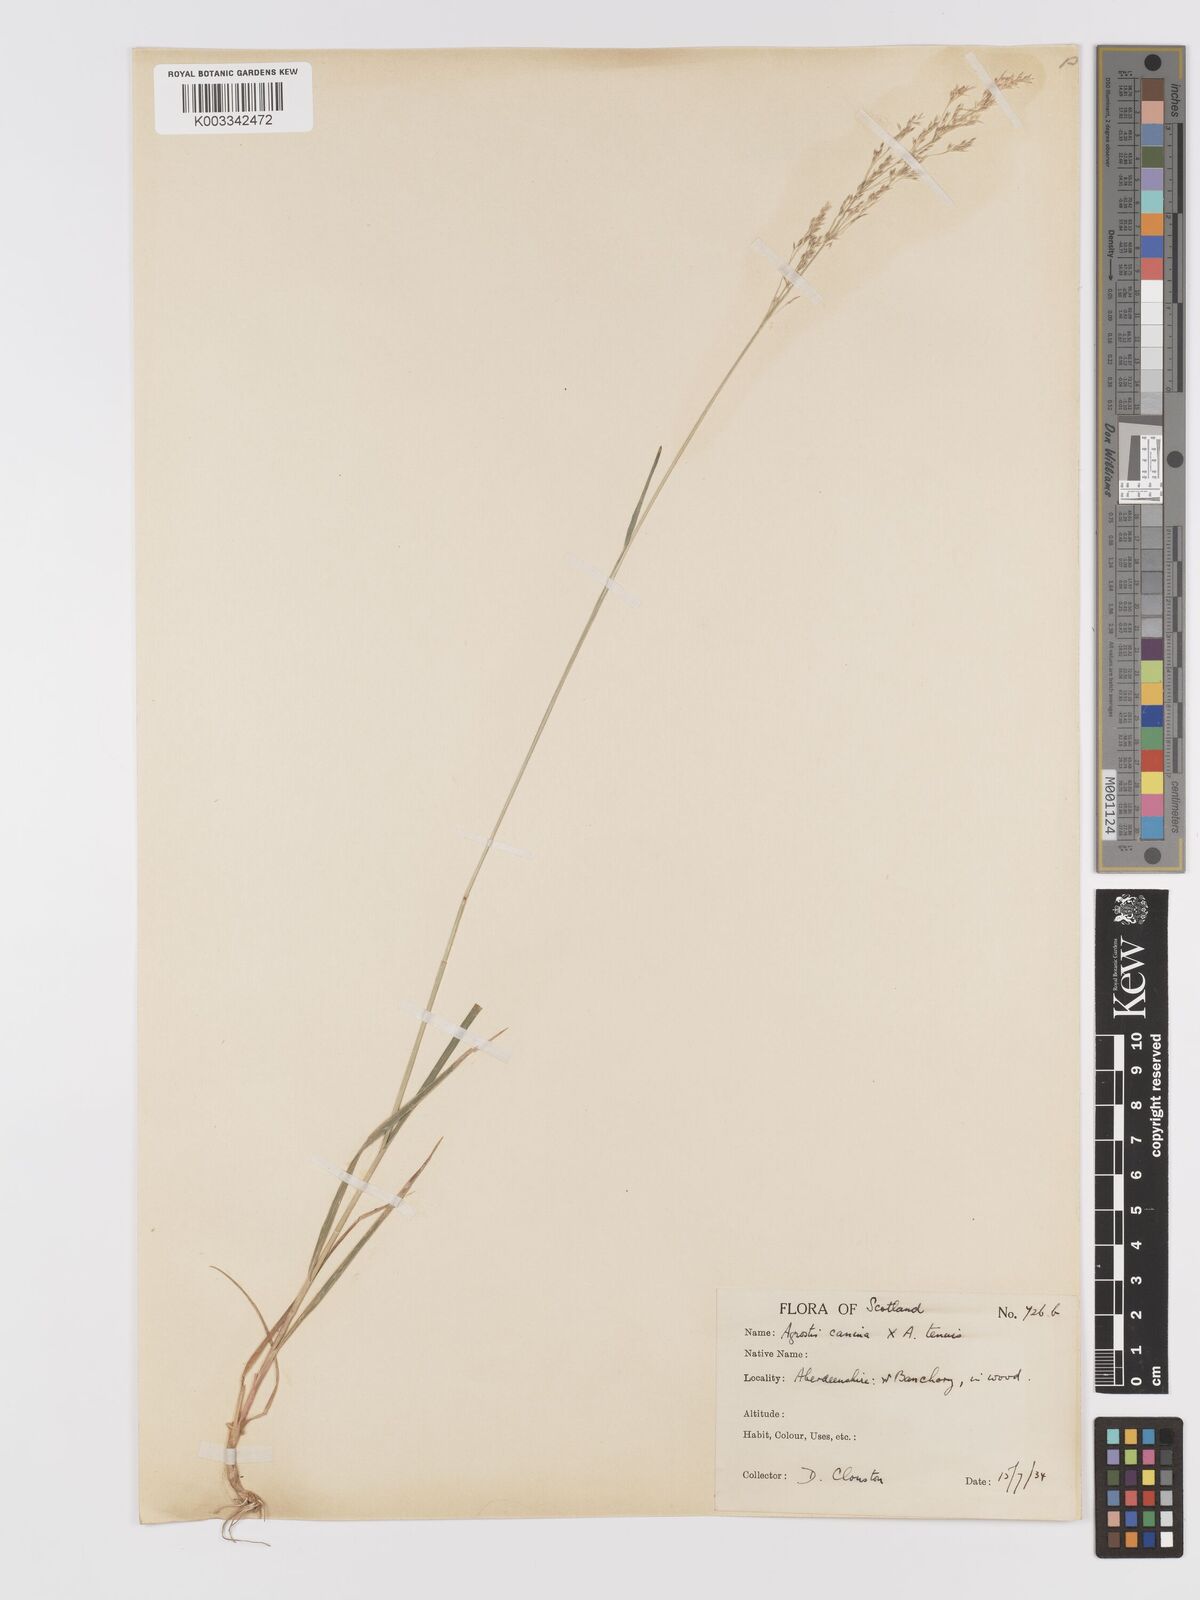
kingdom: Plantae
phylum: Tracheophyta
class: Liliopsida
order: Poales
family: Poaceae
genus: Agrostis
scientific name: Agrostis capillaris
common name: Colonial bentgrass
